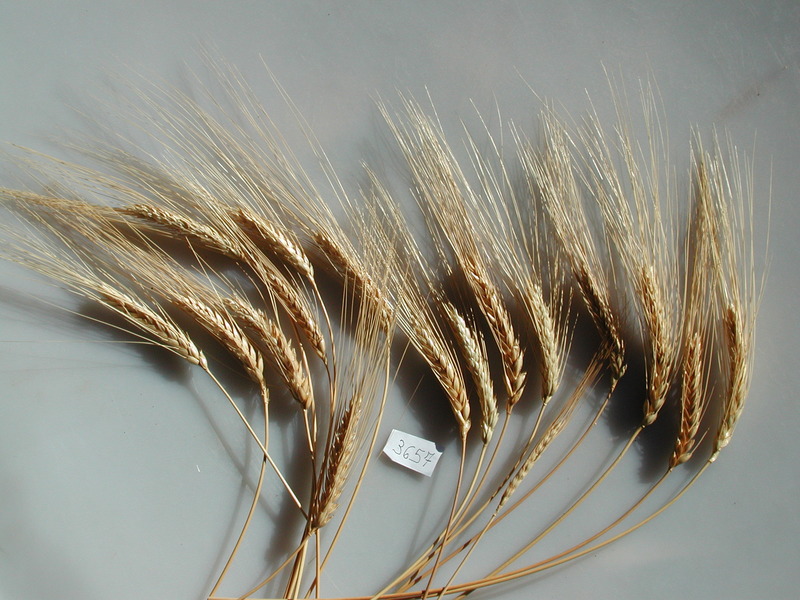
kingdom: Plantae
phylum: Tracheophyta
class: Liliopsida
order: Poales
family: Poaceae
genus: Triticum
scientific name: Triticum turgidum
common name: Wheat
